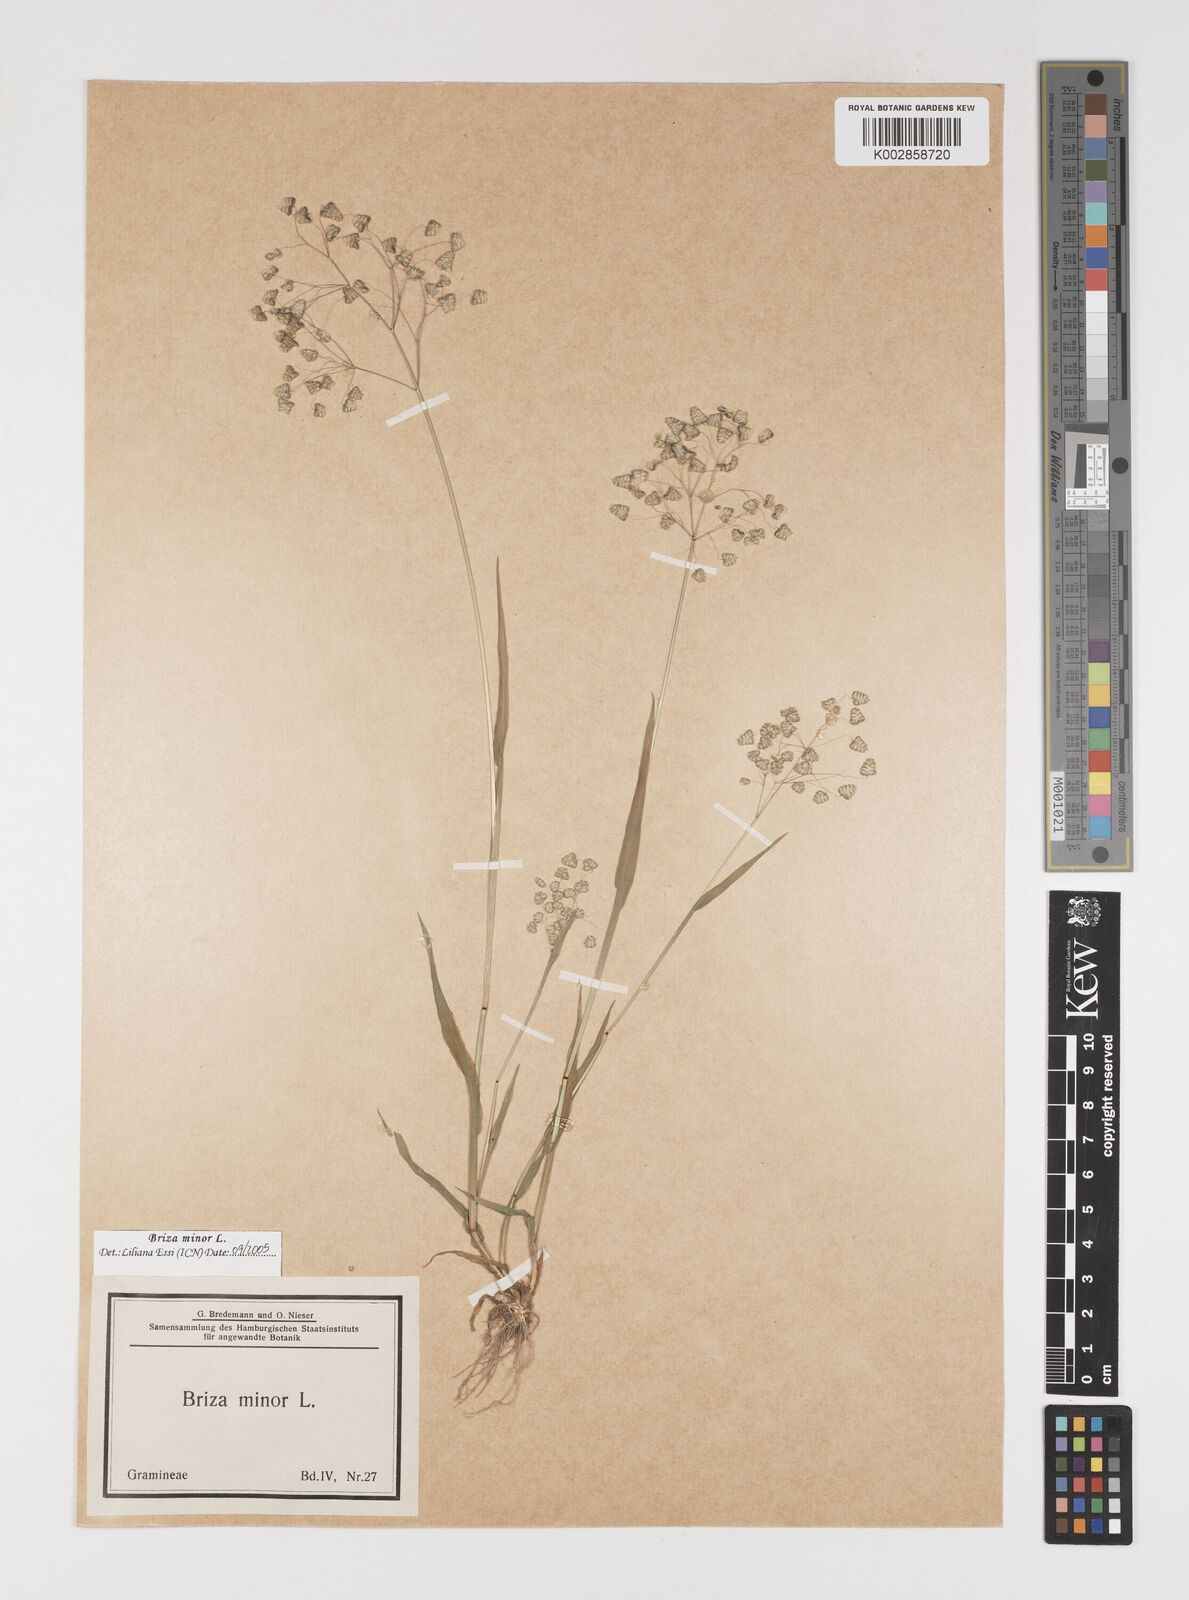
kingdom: Plantae
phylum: Tracheophyta
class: Liliopsida
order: Poales
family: Poaceae
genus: Briza
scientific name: Briza minor
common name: Lesser quaking-grass
